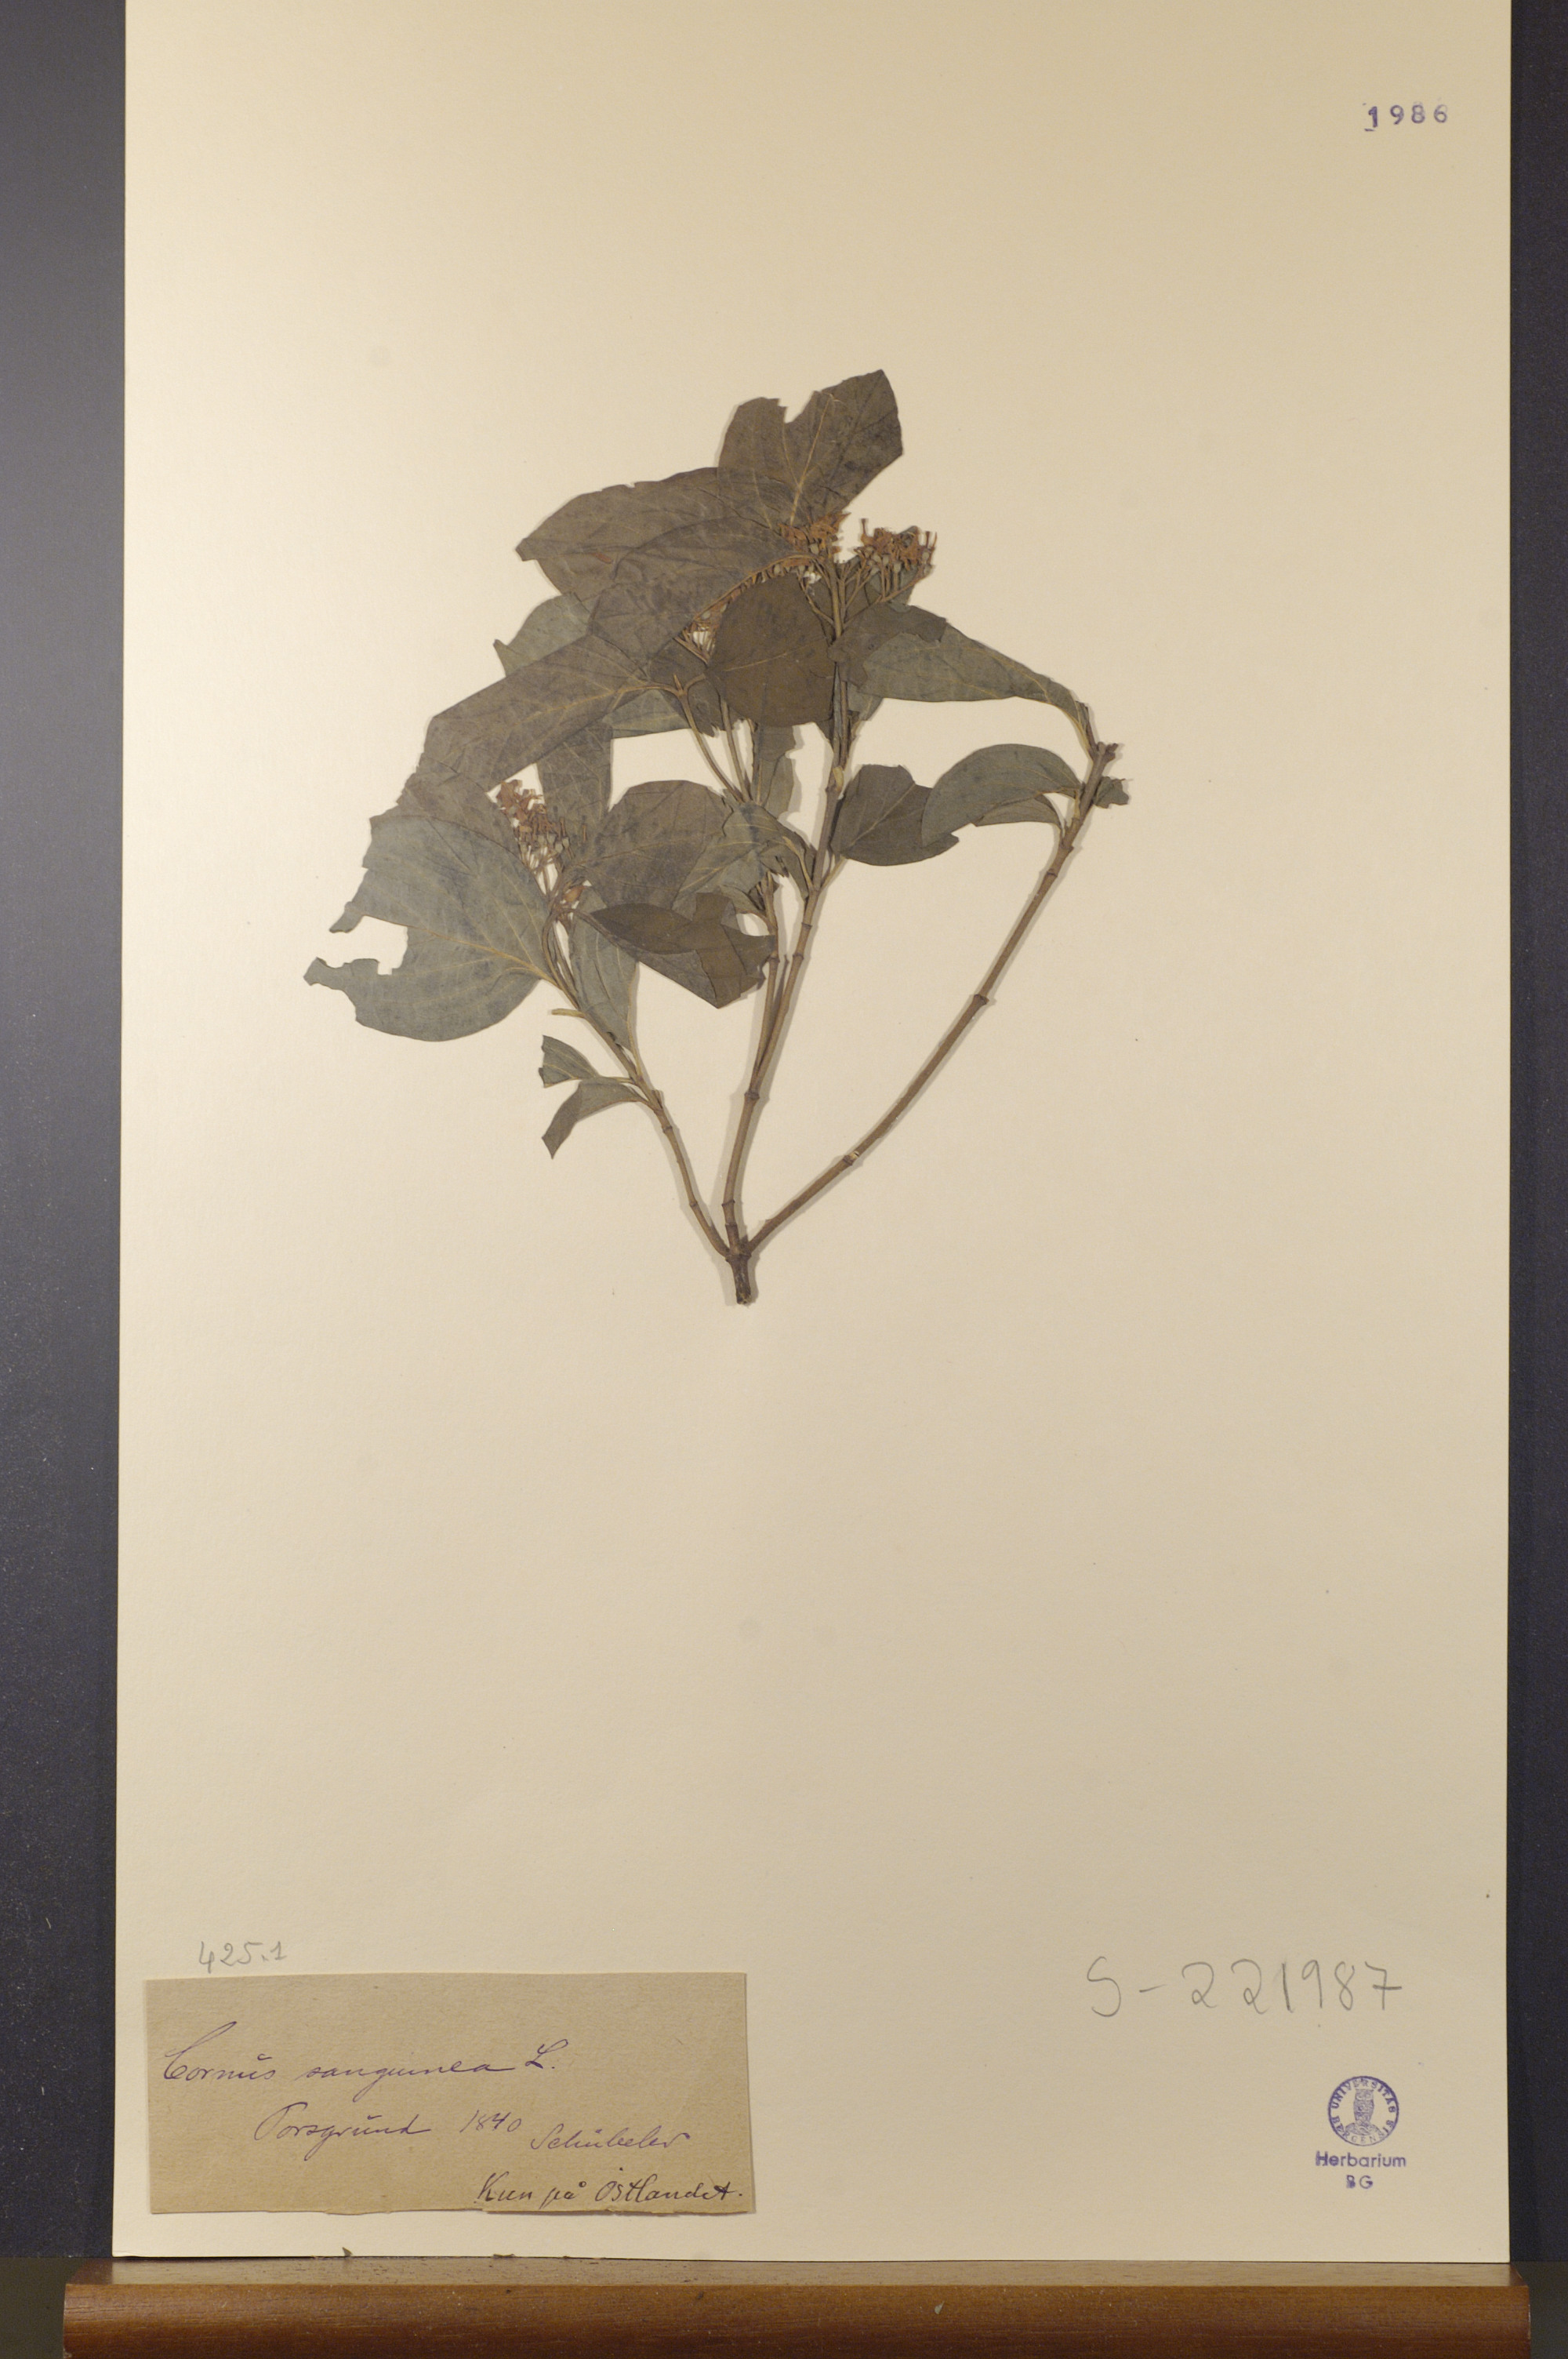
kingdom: Plantae
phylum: Tracheophyta
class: Magnoliopsida
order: Cornales
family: Cornaceae
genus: Cornus
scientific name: Cornus sanguinea
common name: Dogwood
